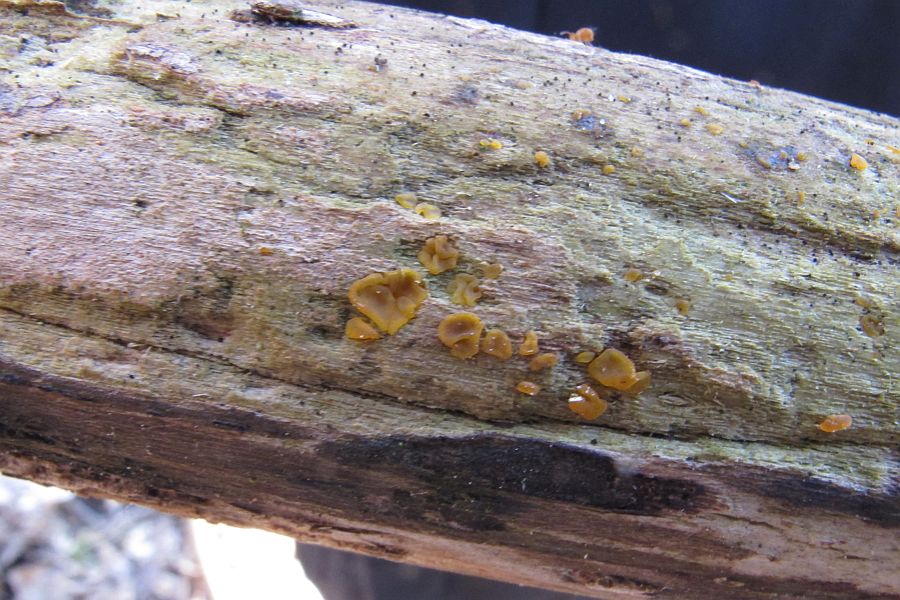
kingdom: Fungi
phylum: Basidiomycota
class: Dacrymycetes
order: Dacrymycetales
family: Dacrymycetaceae
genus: Dacrymyces
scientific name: Dacrymyces lacrymalis
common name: rynket tåresvamp
